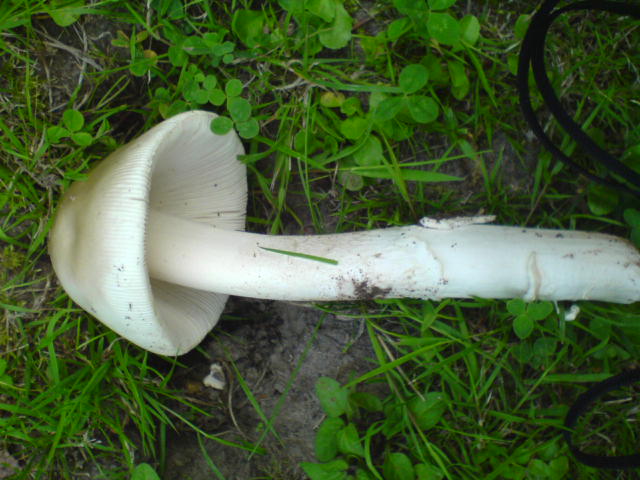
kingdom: Fungi
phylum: Basidiomycota
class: Agaricomycetes
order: Agaricales
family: Amanitaceae
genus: Amanita
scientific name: Amanita lividopallescens
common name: afblegende kam-fluesvamp
